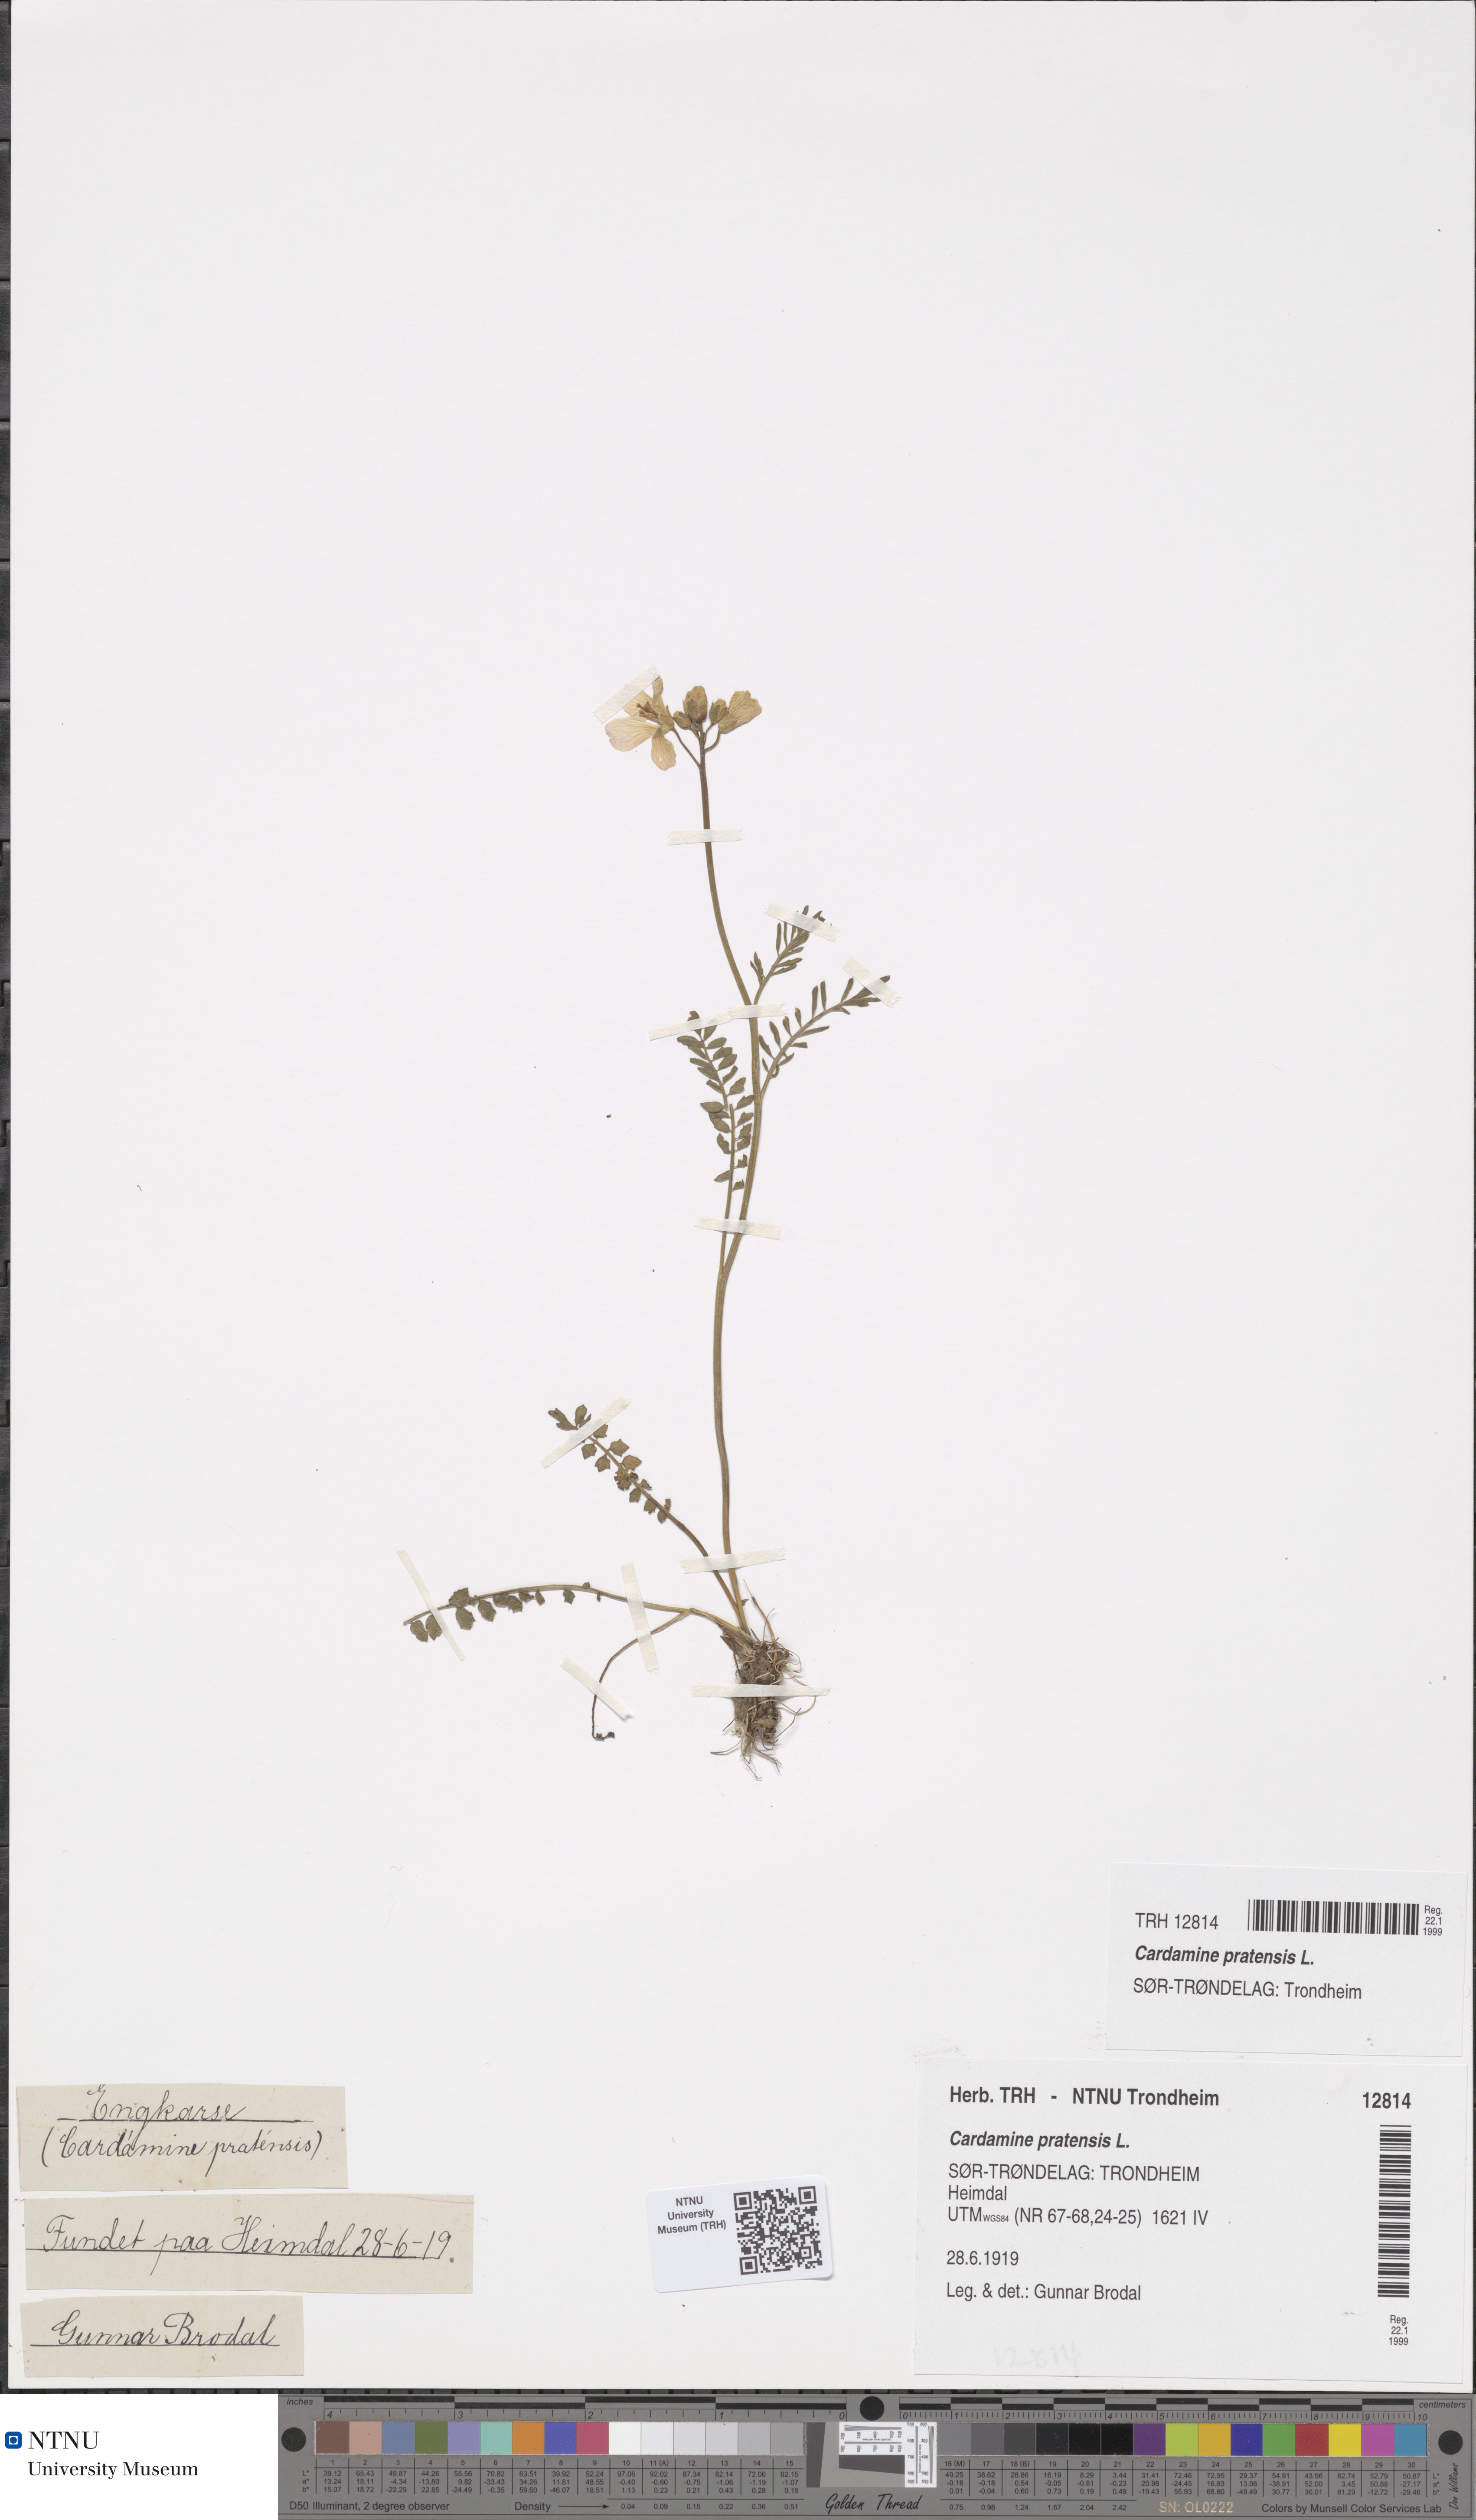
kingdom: Plantae
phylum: Tracheophyta
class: Magnoliopsida
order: Brassicales
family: Brassicaceae
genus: Cardamine
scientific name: Cardamine dentata
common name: Toothed bittercress
